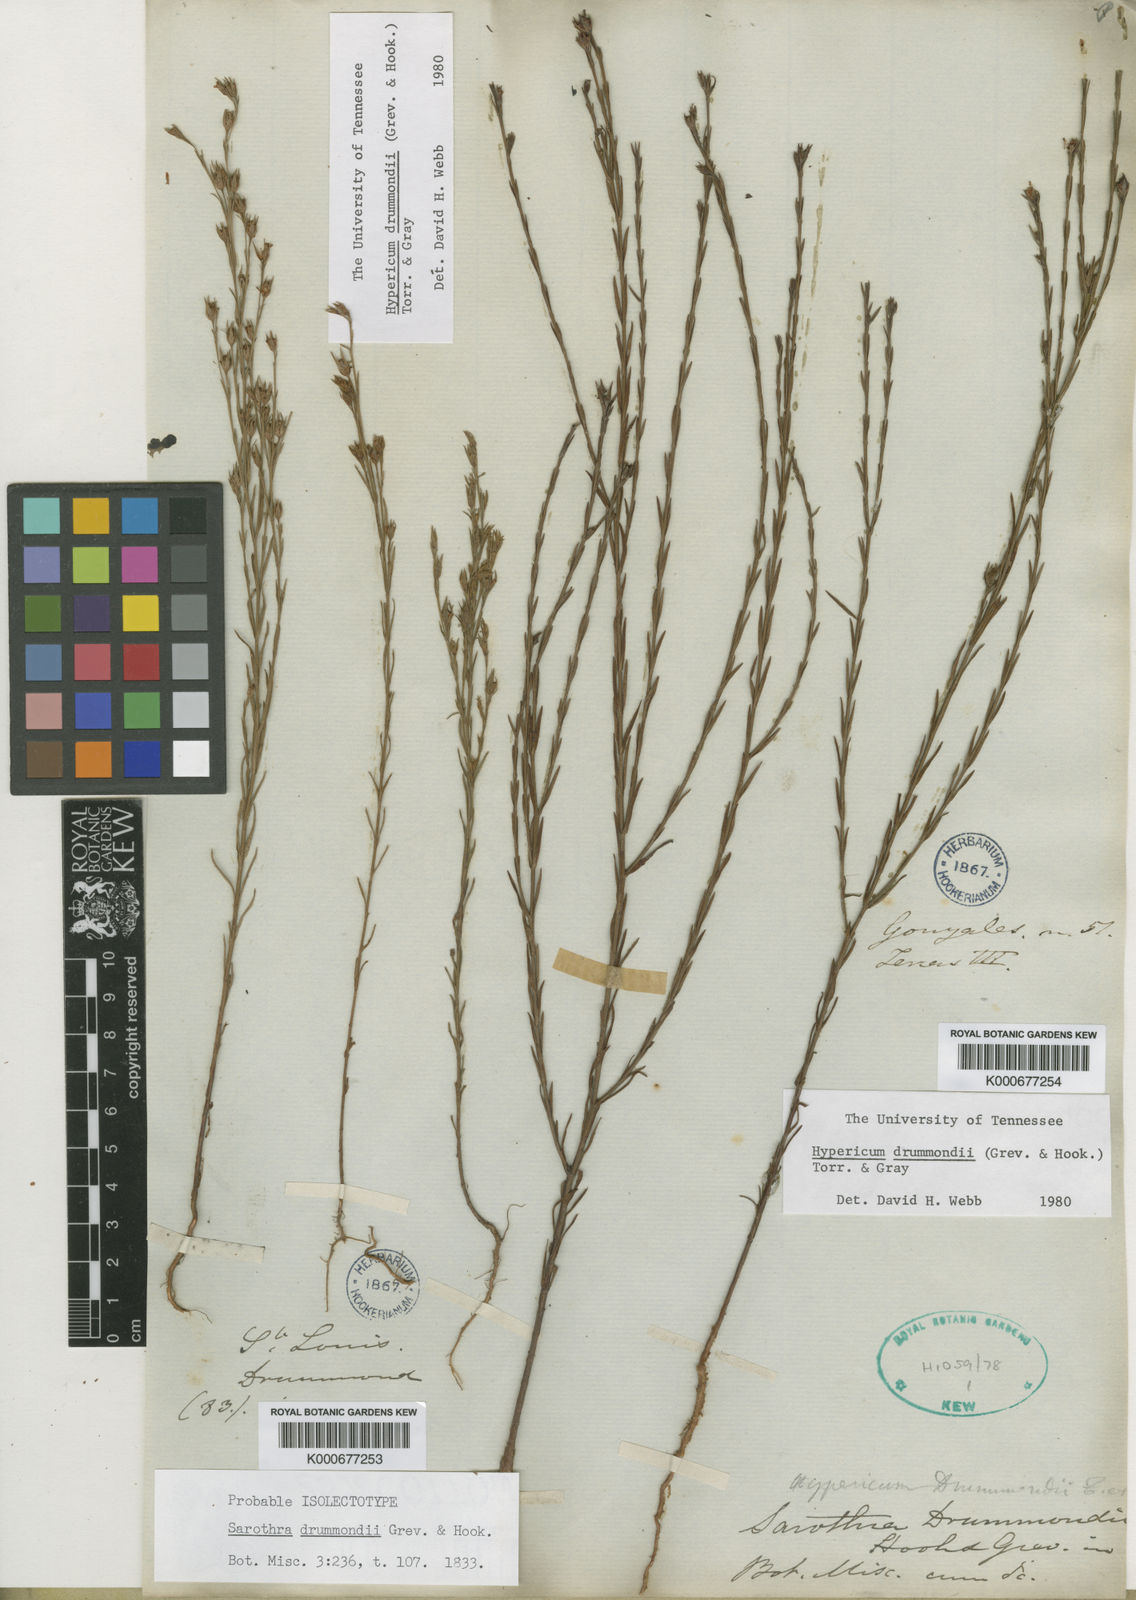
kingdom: Plantae
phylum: Tracheophyta
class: Magnoliopsida
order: Malpighiales
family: Hypericaceae
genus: Hypericum
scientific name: Hypericum drummondii
